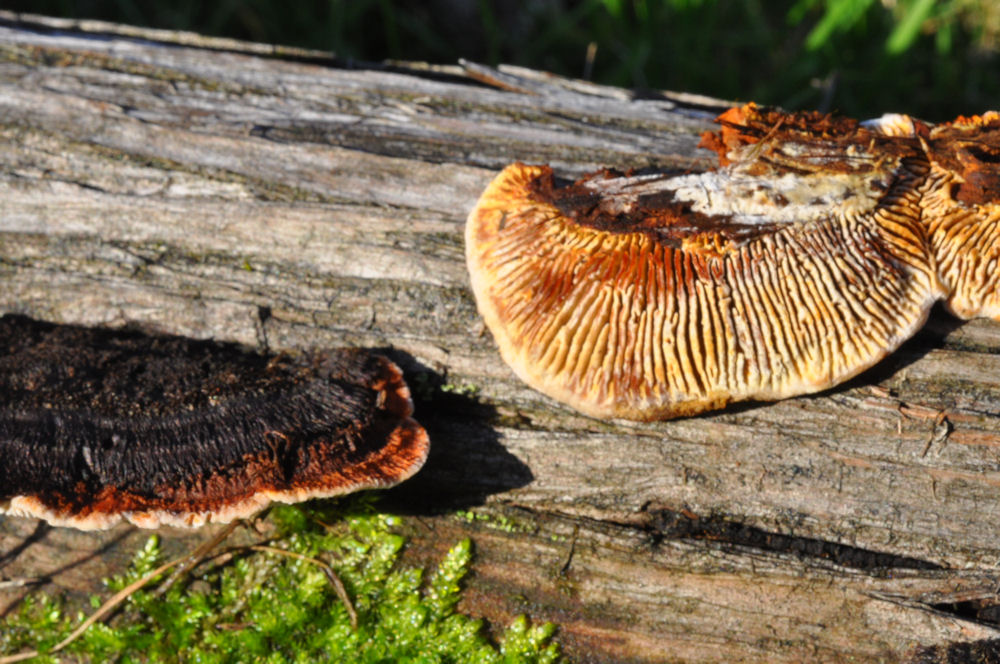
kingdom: Fungi
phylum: Basidiomycota
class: Agaricomycetes
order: Gloeophyllales
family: Gloeophyllaceae
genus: Gloeophyllum
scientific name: Gloeophyllum sepiarium
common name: fyrre-korkhat
